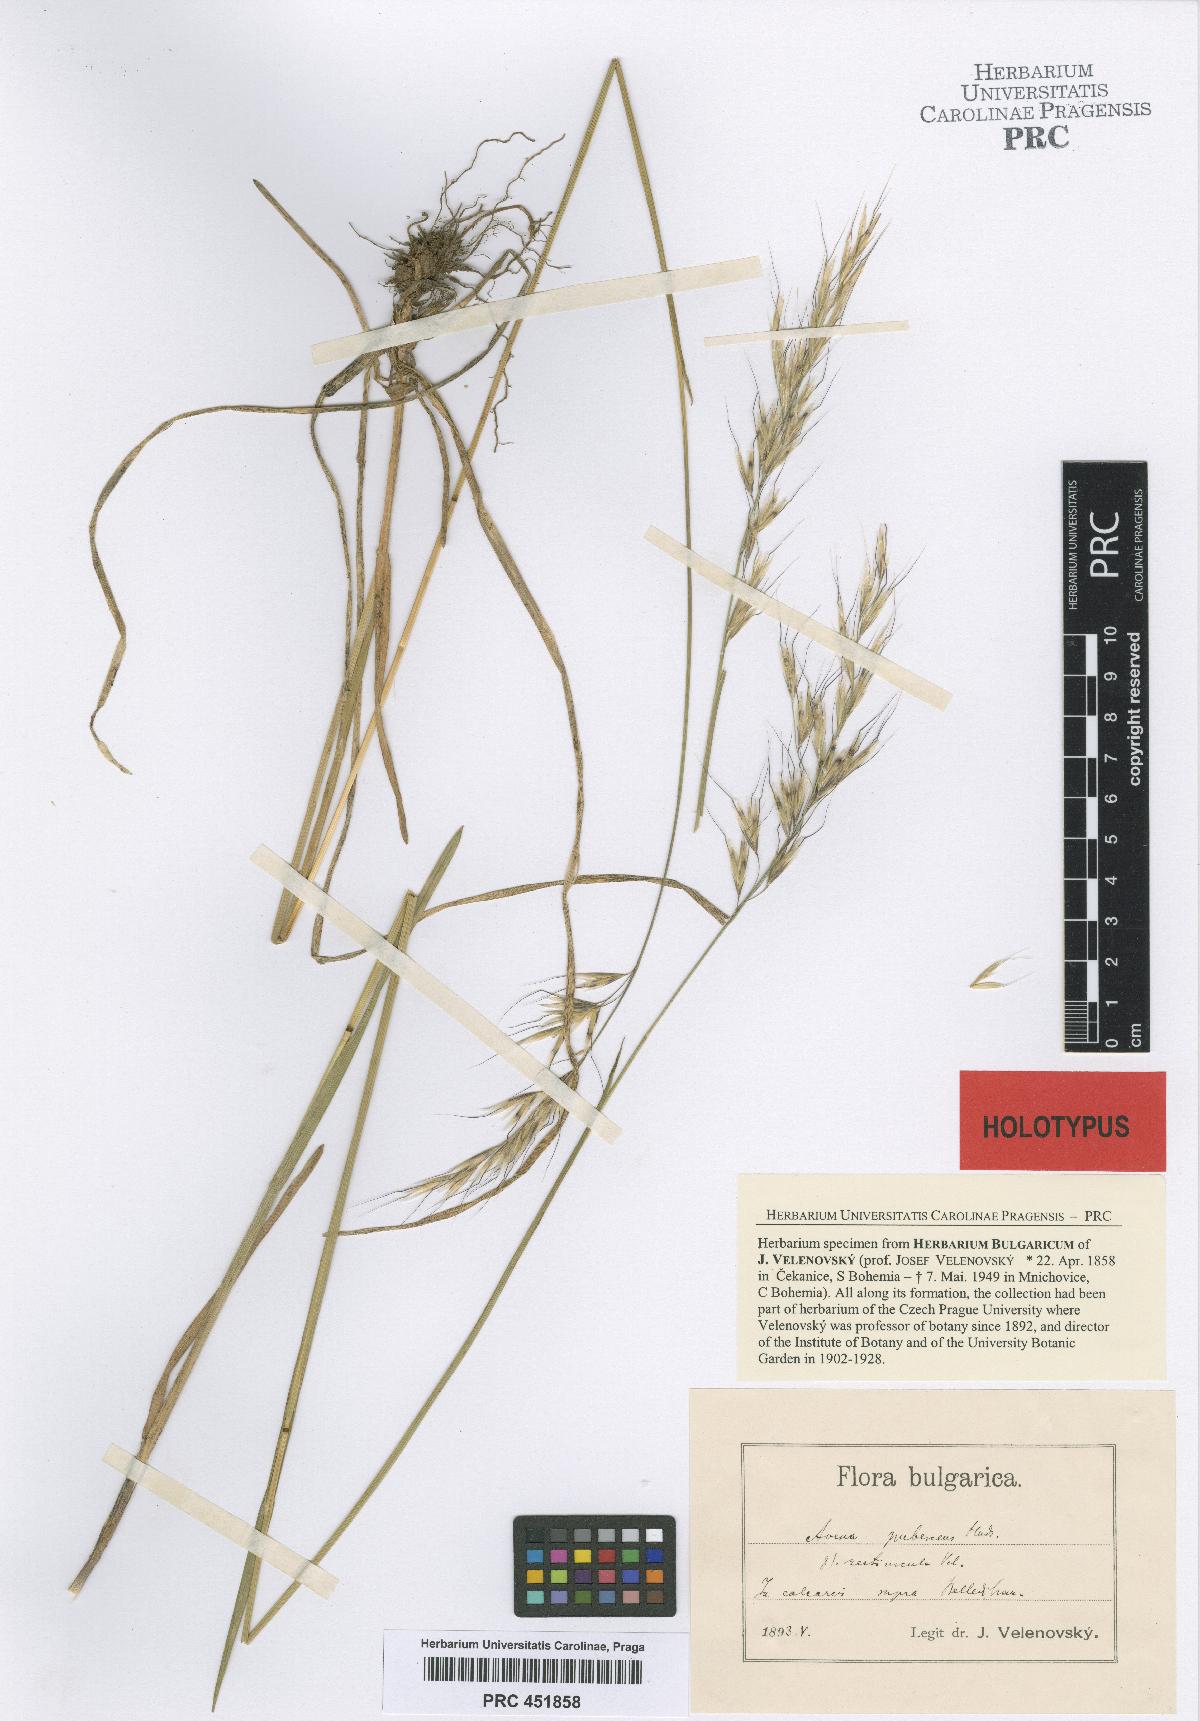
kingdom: Plantae
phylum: Tracheophyta
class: Liliopsida
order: Poales
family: Poaceae
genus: Avenula
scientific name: Avenula pubescens
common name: Downy alpine oatgrass
